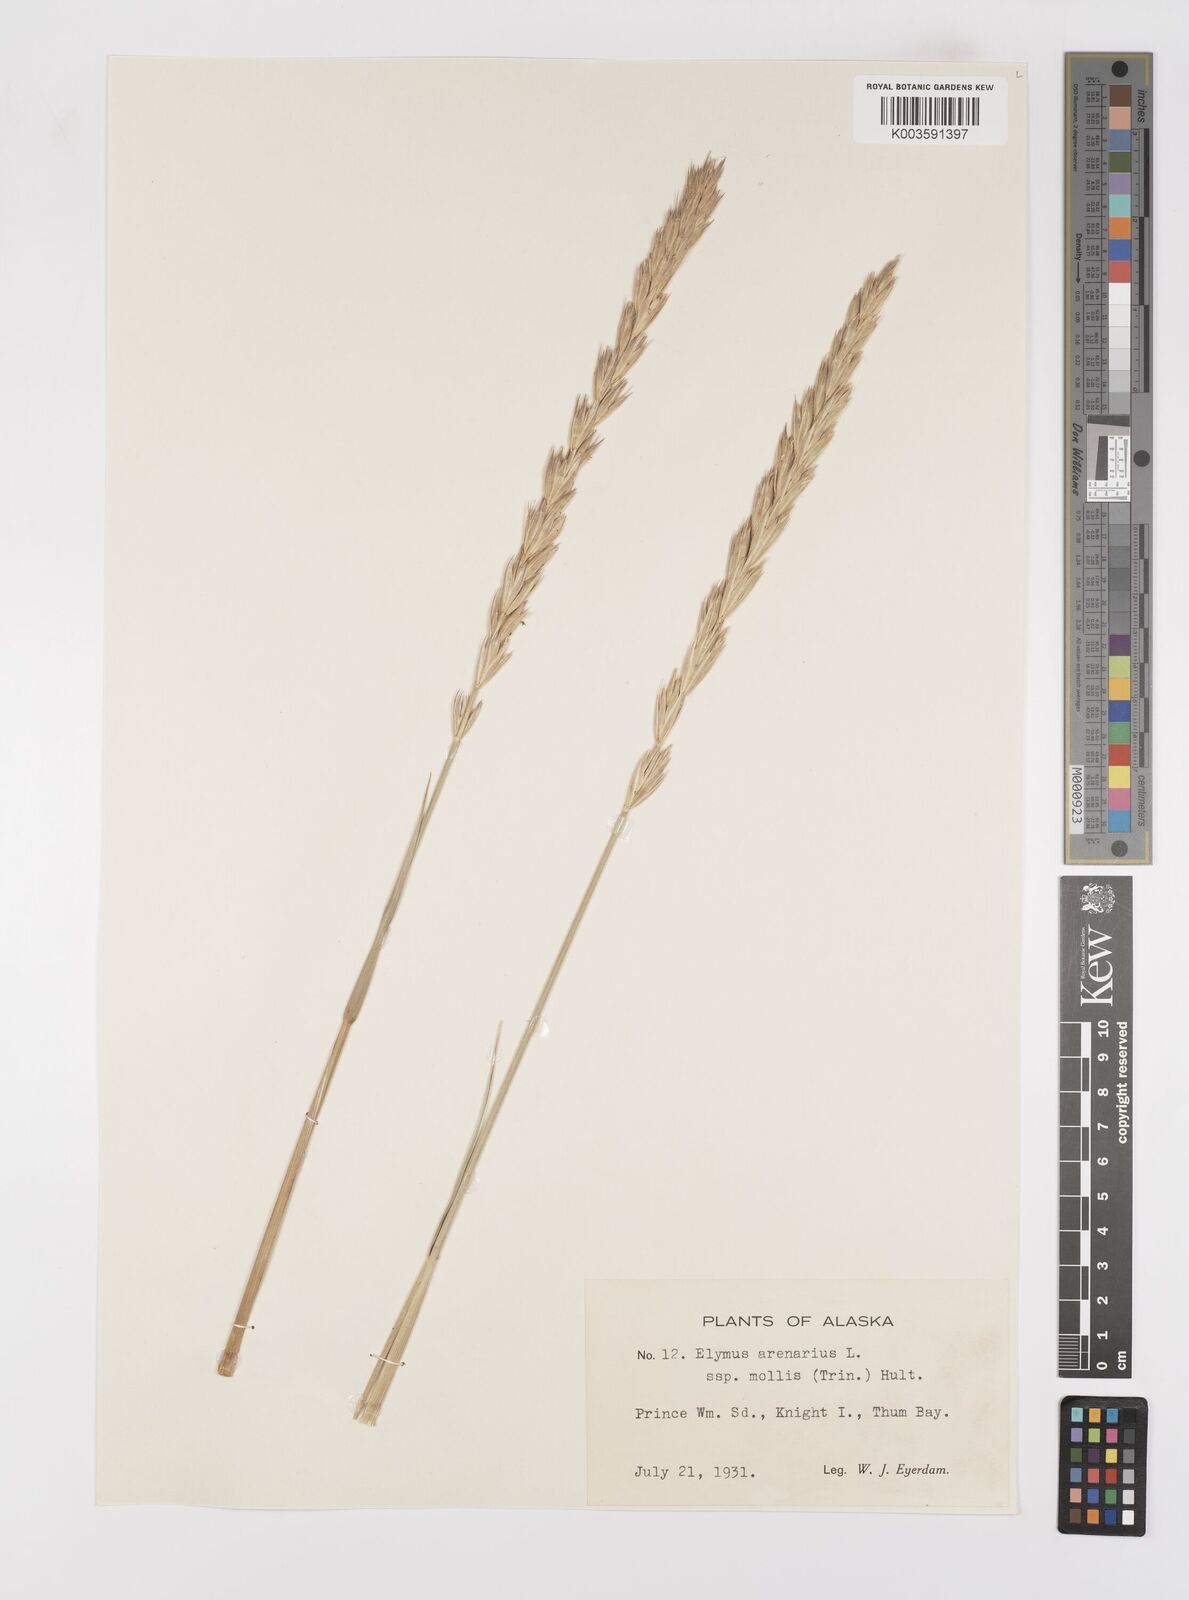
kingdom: Plantae
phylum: Tracheophyta
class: Liliopsida
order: Poales
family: Poaceae
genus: Leymus
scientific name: Leymus mollis
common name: American dune grass
